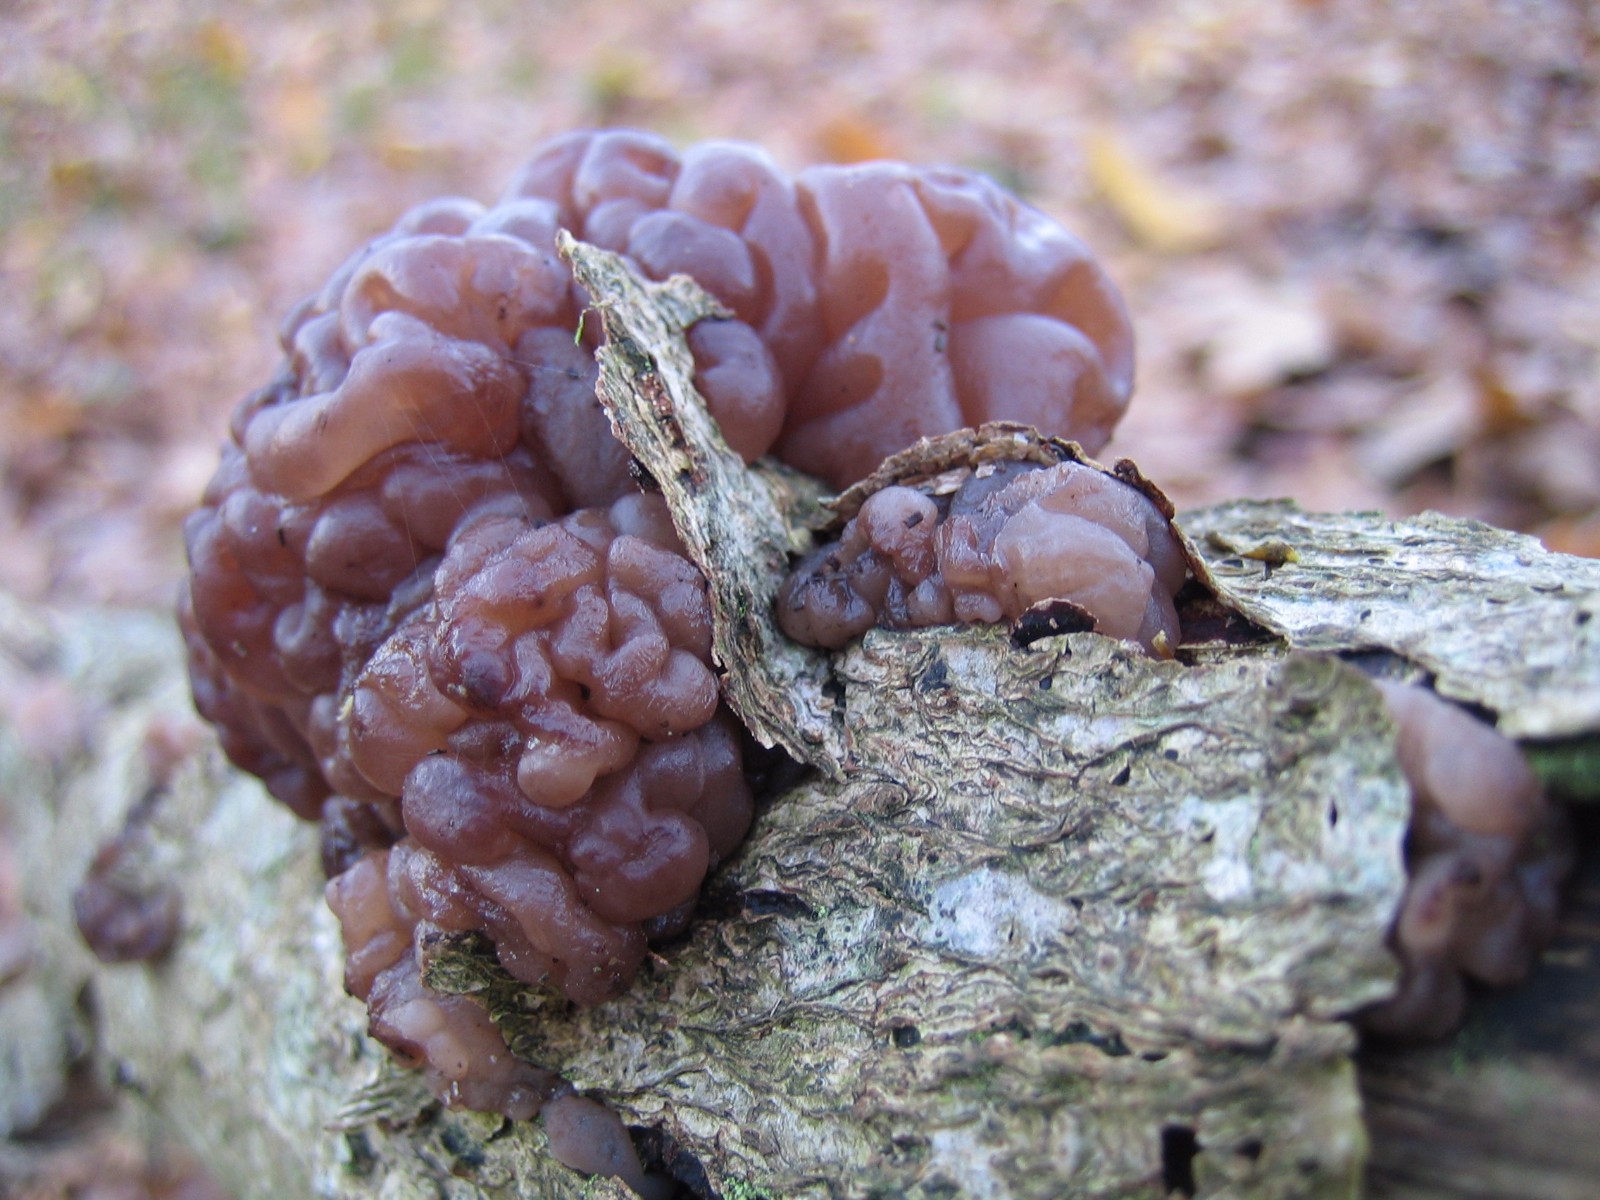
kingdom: Fungi
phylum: Ascomycota
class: Leotiomycetes
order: Helotiales
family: Gelatinodiscaceae
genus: Ascotremella
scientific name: Ascotremella faginea
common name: hjerne-bævreskive
